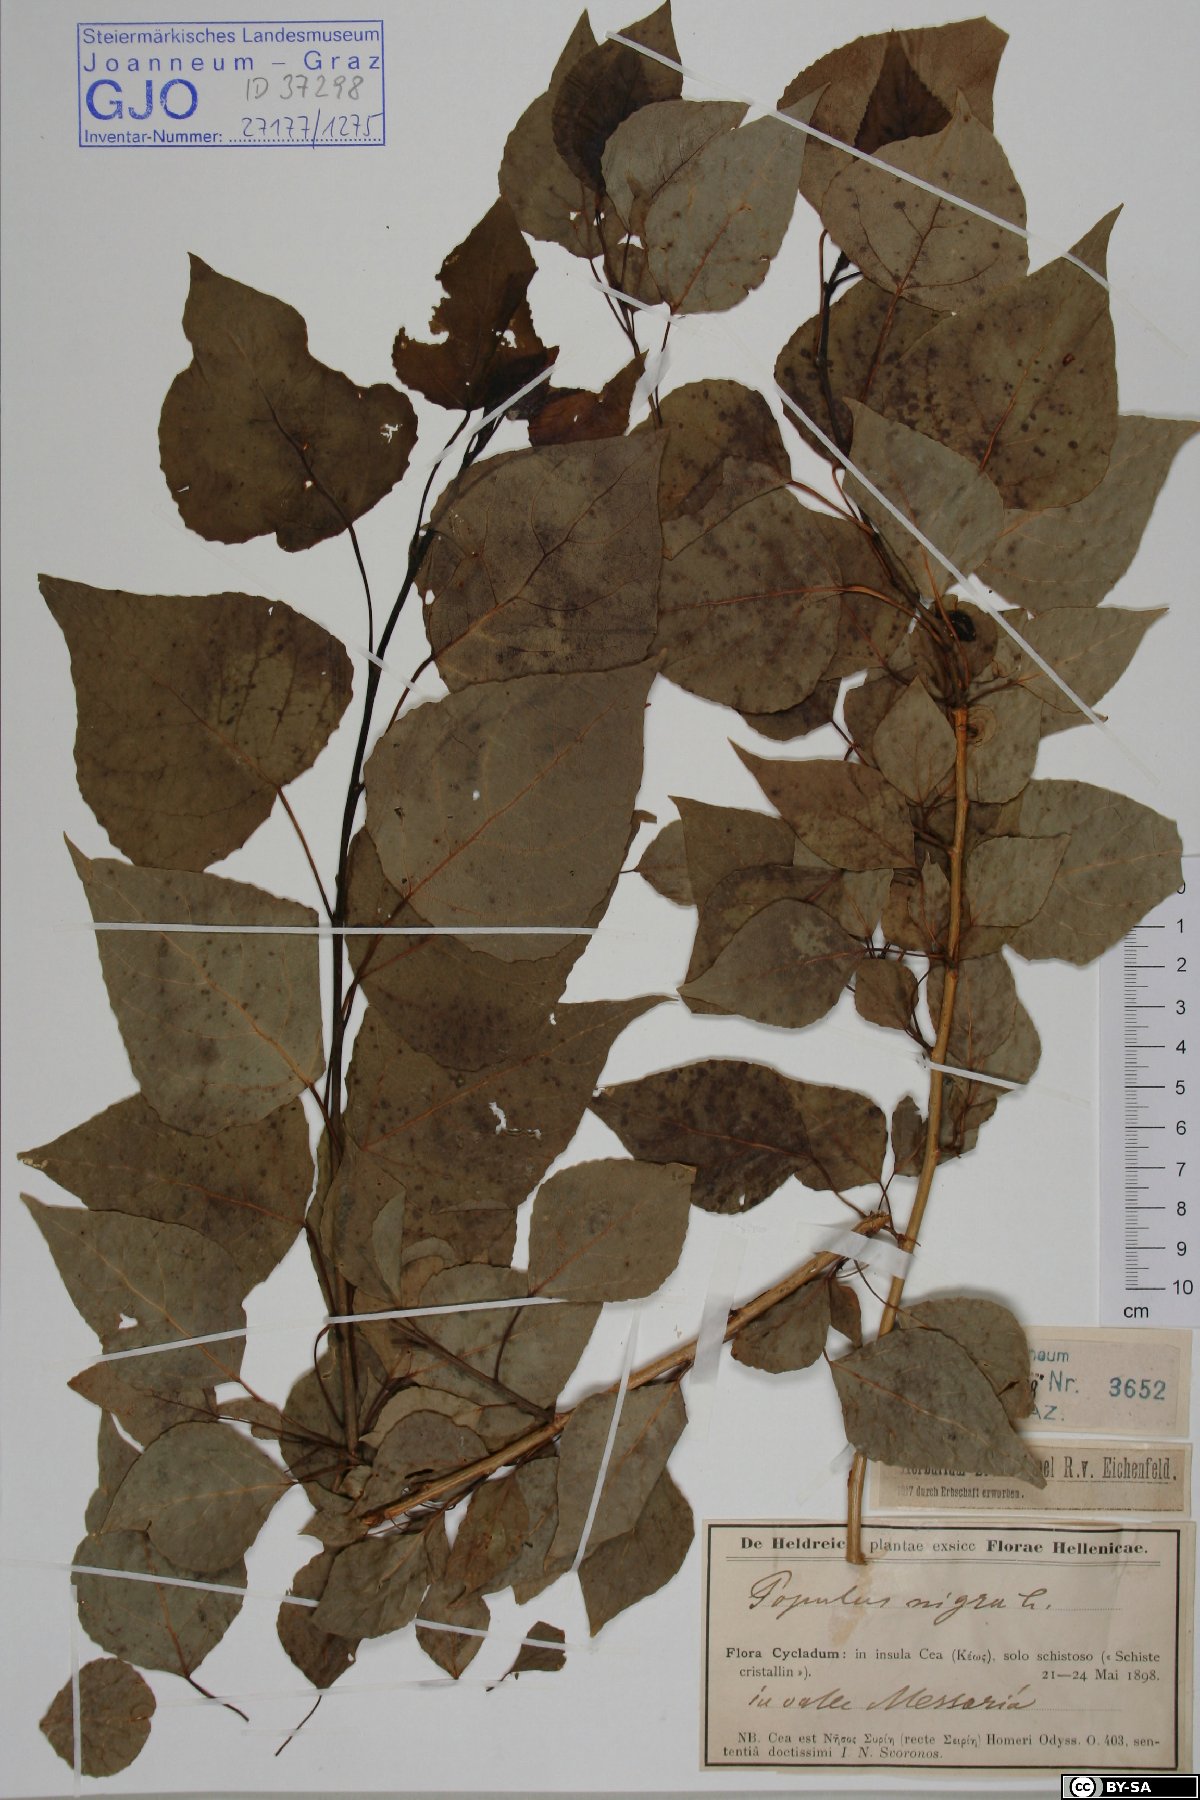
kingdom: Plantae
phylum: Tracheophyta
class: Magnoliopsida
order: Malpighiales
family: Salicaceae
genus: Populus
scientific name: Populus nigra
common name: Black poplar
